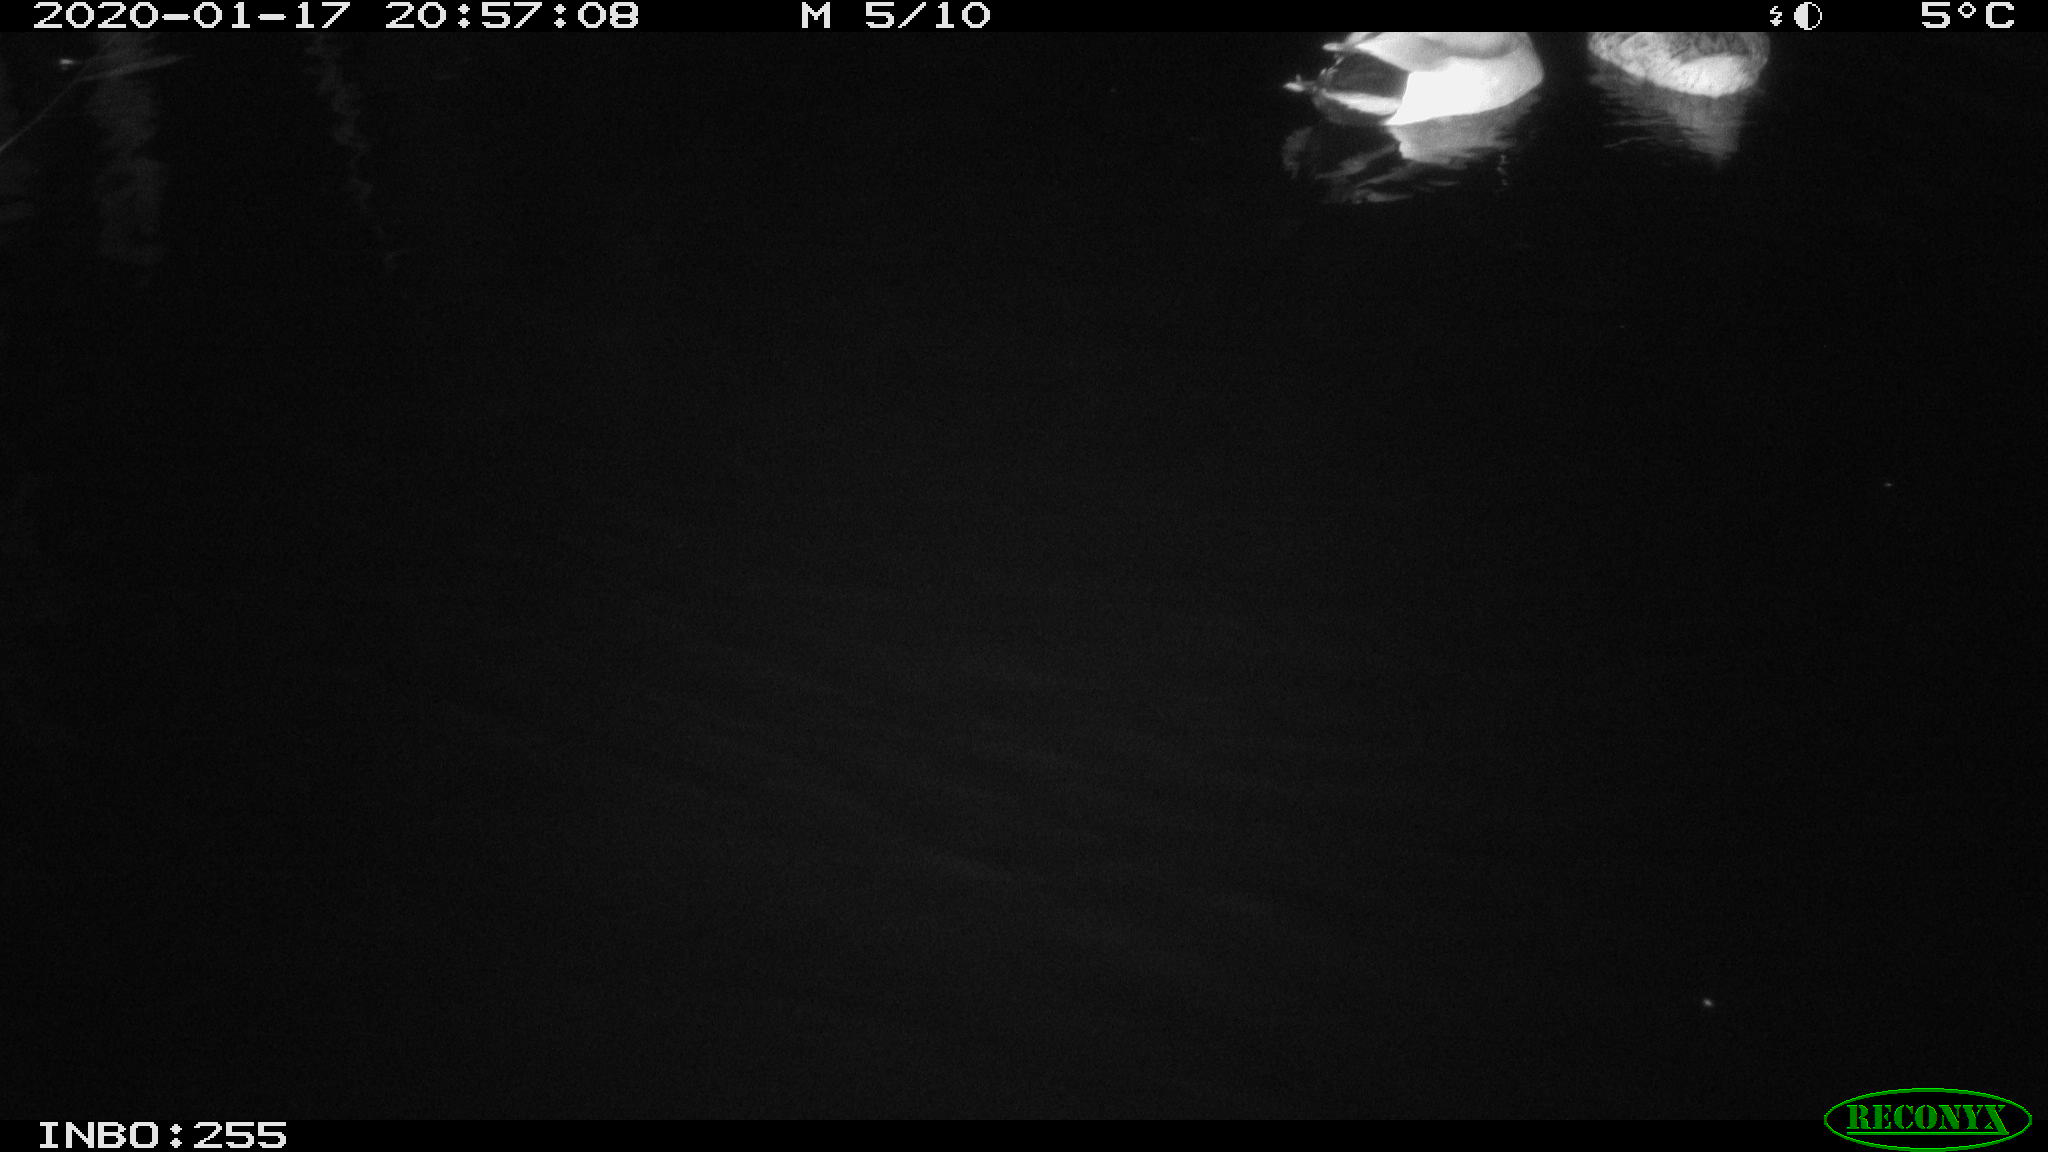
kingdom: Animalia
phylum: Chordata
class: Aves
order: Anseriformes
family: Anatidae
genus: Anas
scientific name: Anas platyrhynchos
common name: Mallard
